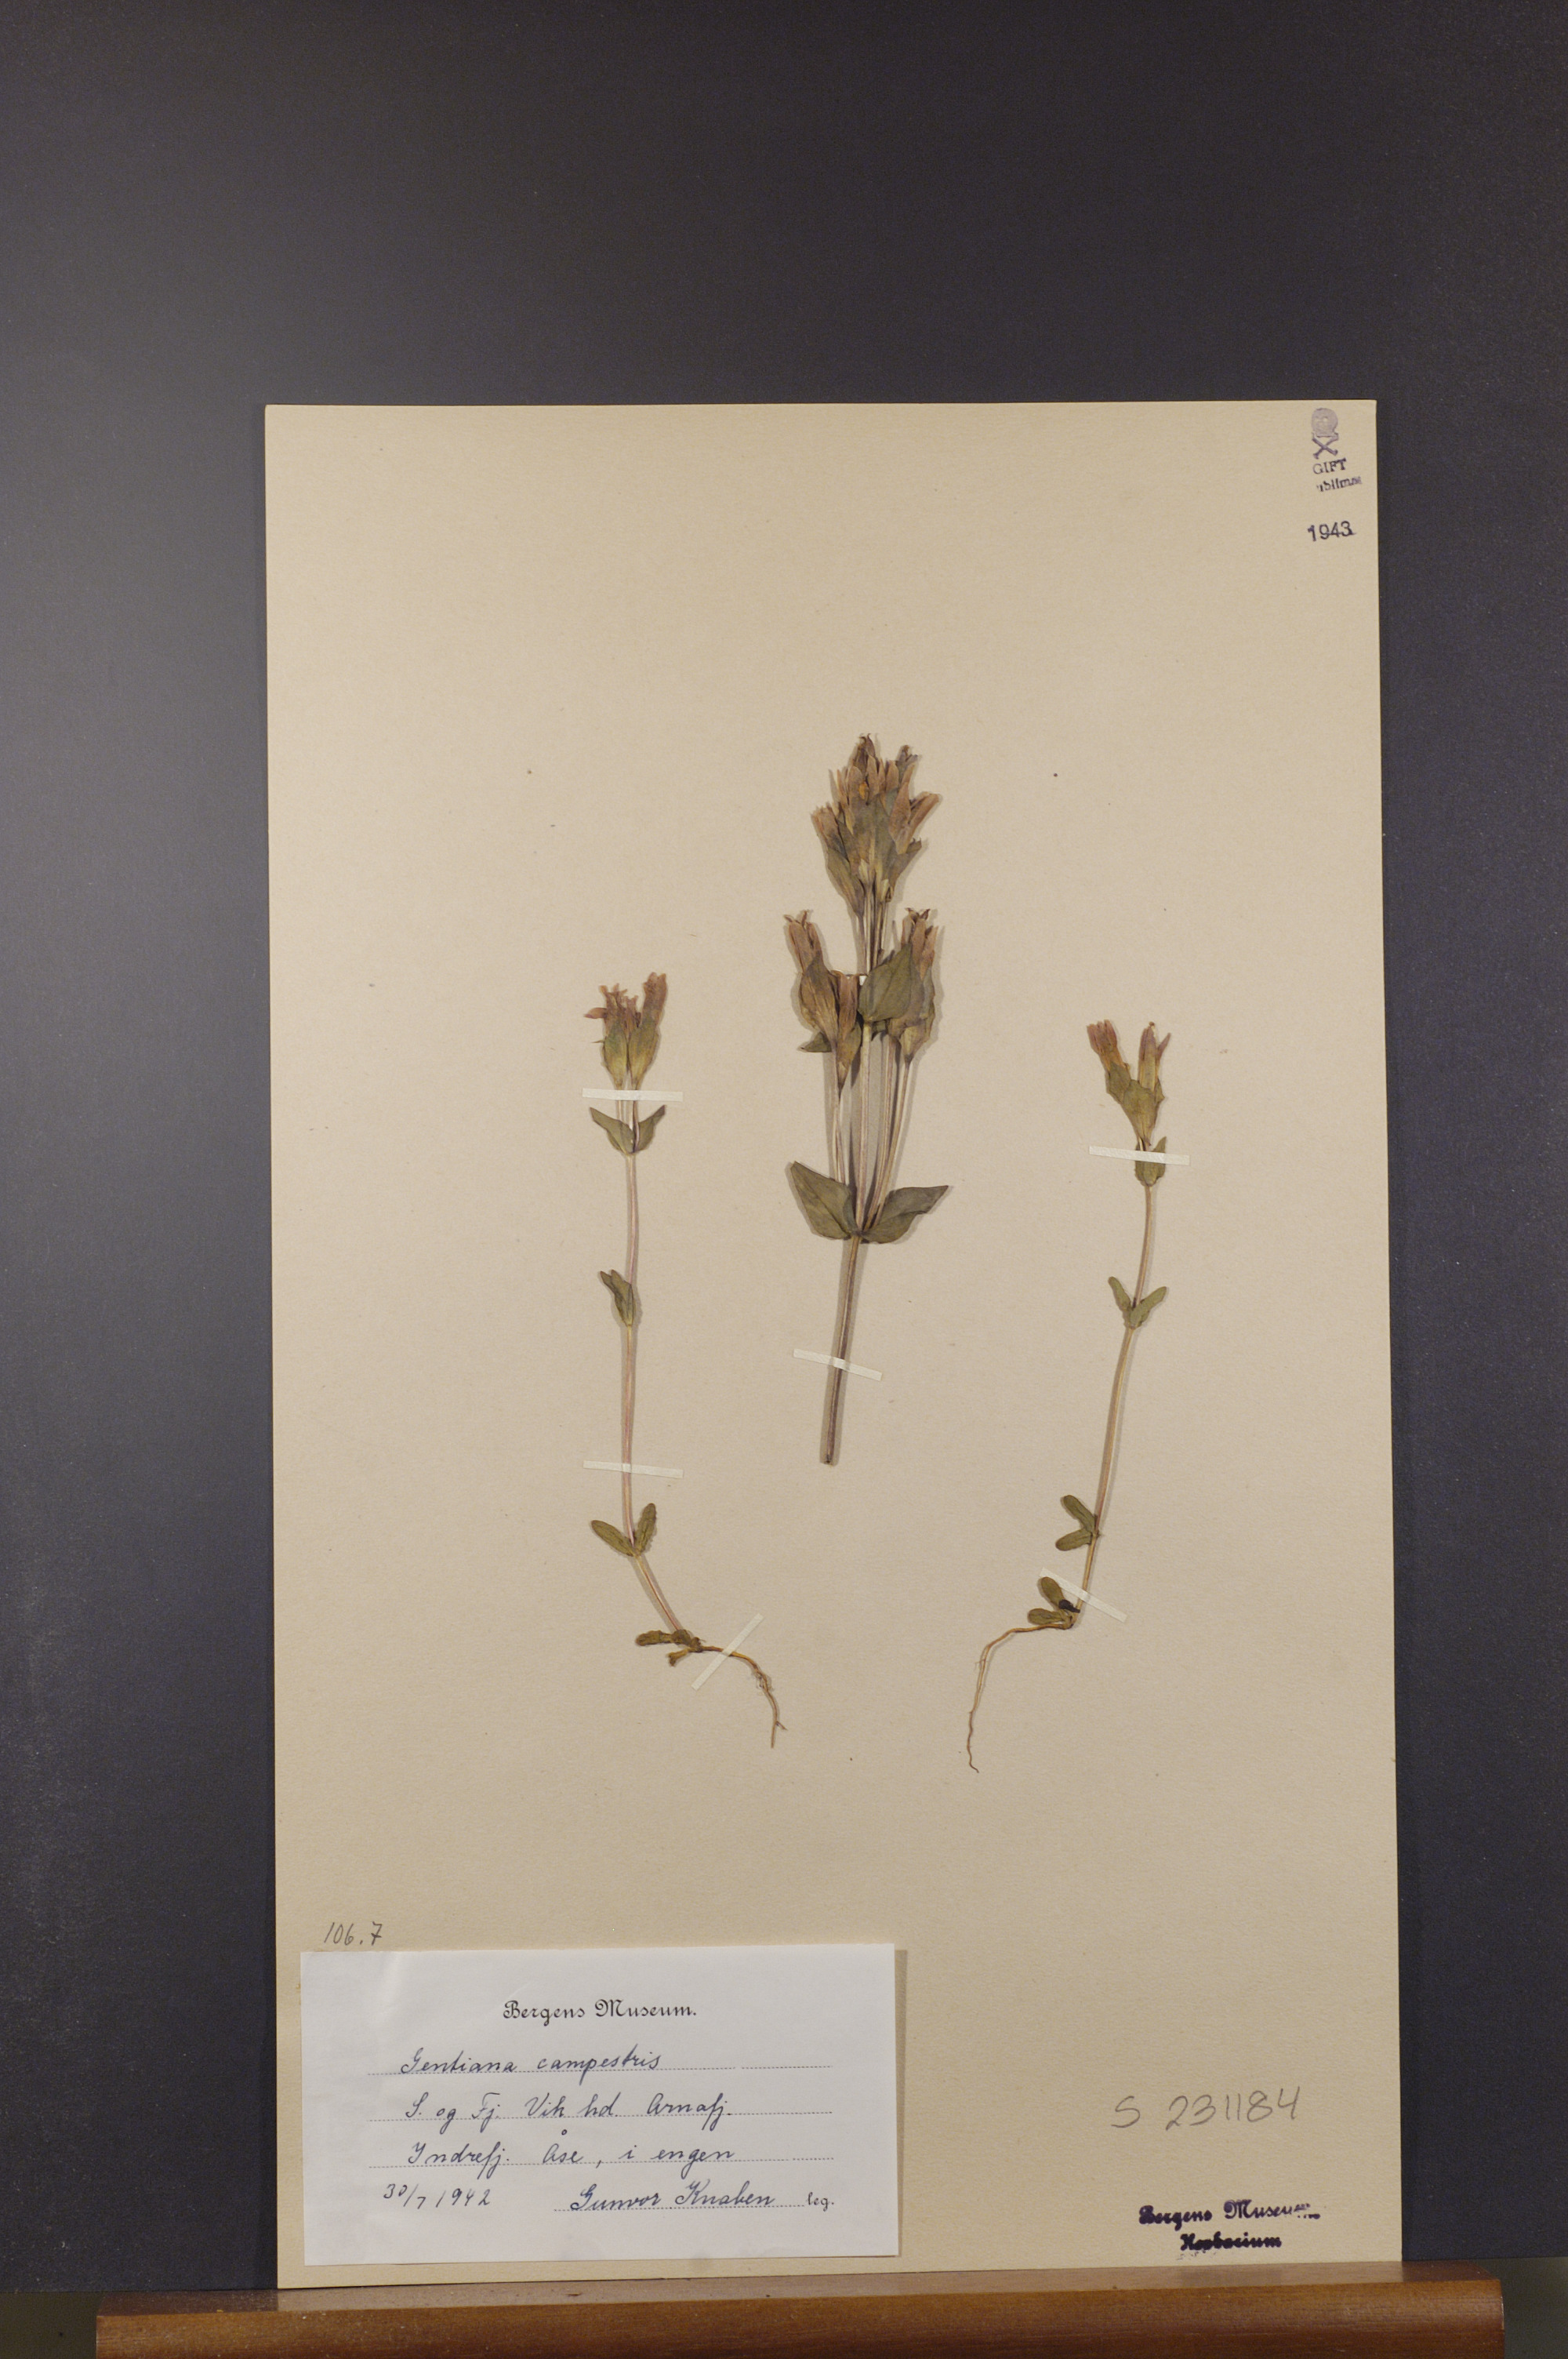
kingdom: Plantae
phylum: Tracheophyta
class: Magnoliopsida
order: Gentianales
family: Gentianaceae
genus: Gentianella
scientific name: Gentianella campestris
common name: Field gentian
